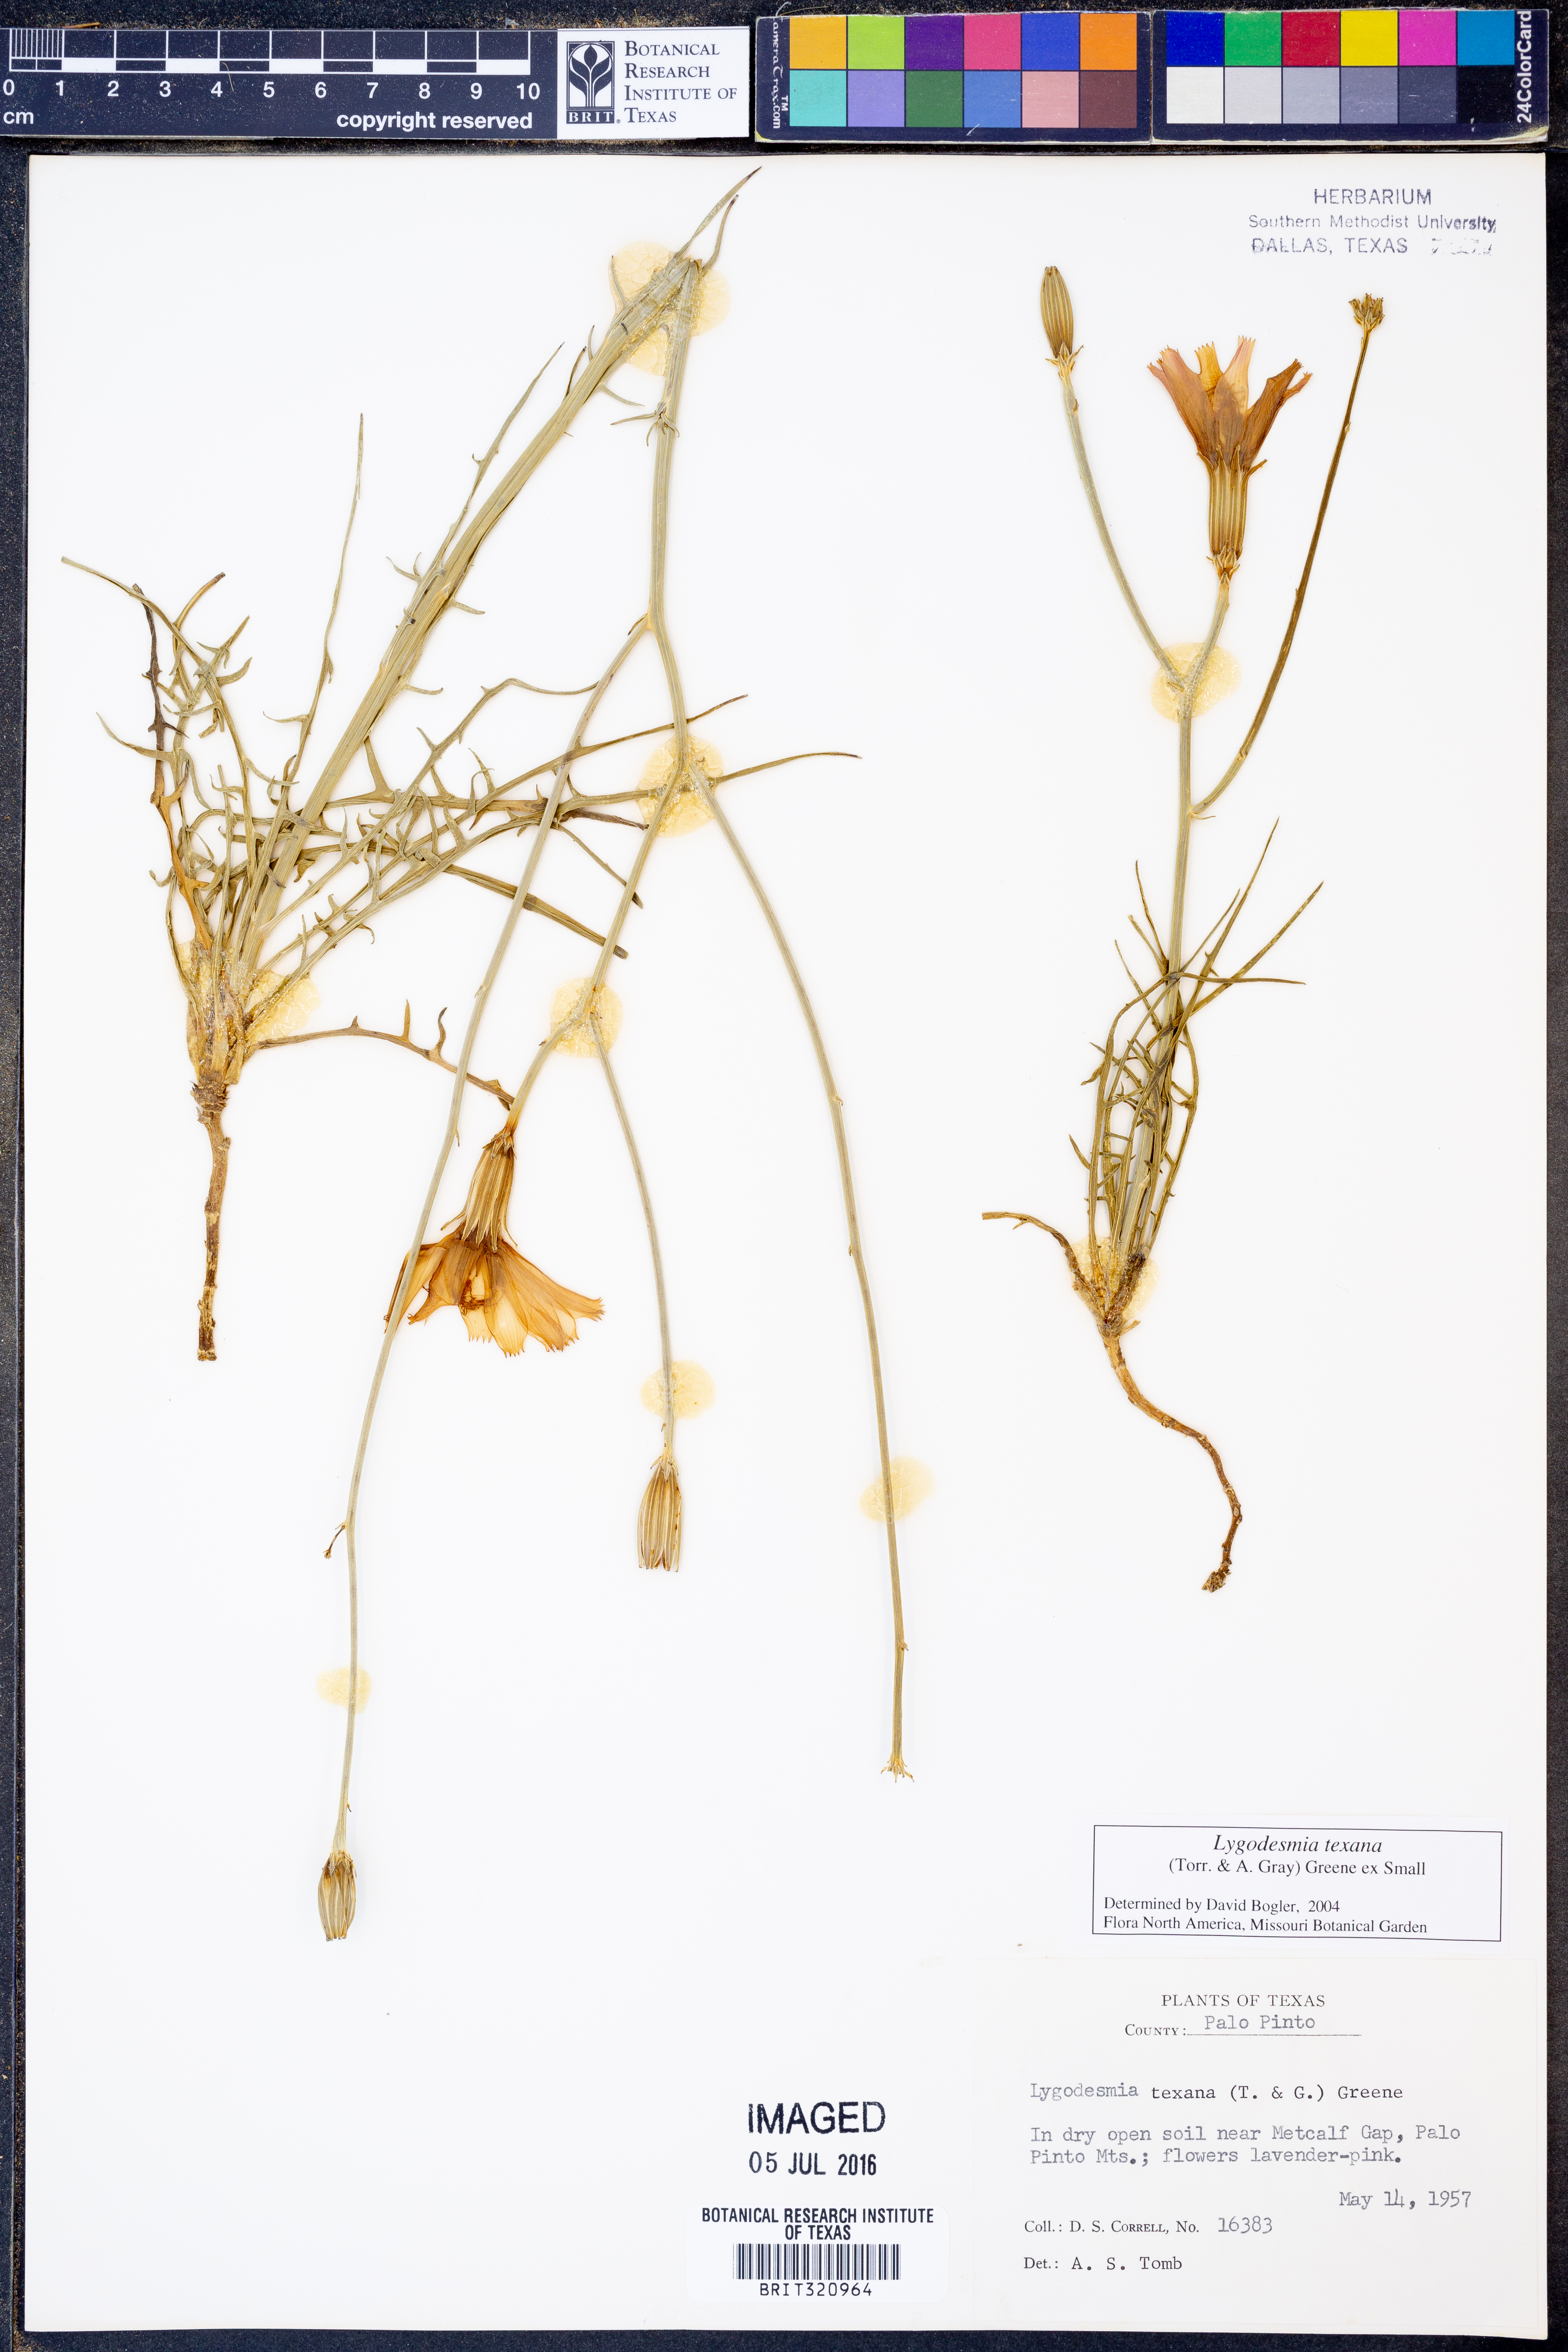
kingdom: Plantae
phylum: Tracheophyta
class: Magnoliopsida
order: Asterales
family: Asteraceae
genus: Lygodesmia
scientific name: Lygodesmia texana
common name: Texas skeleton-plant
